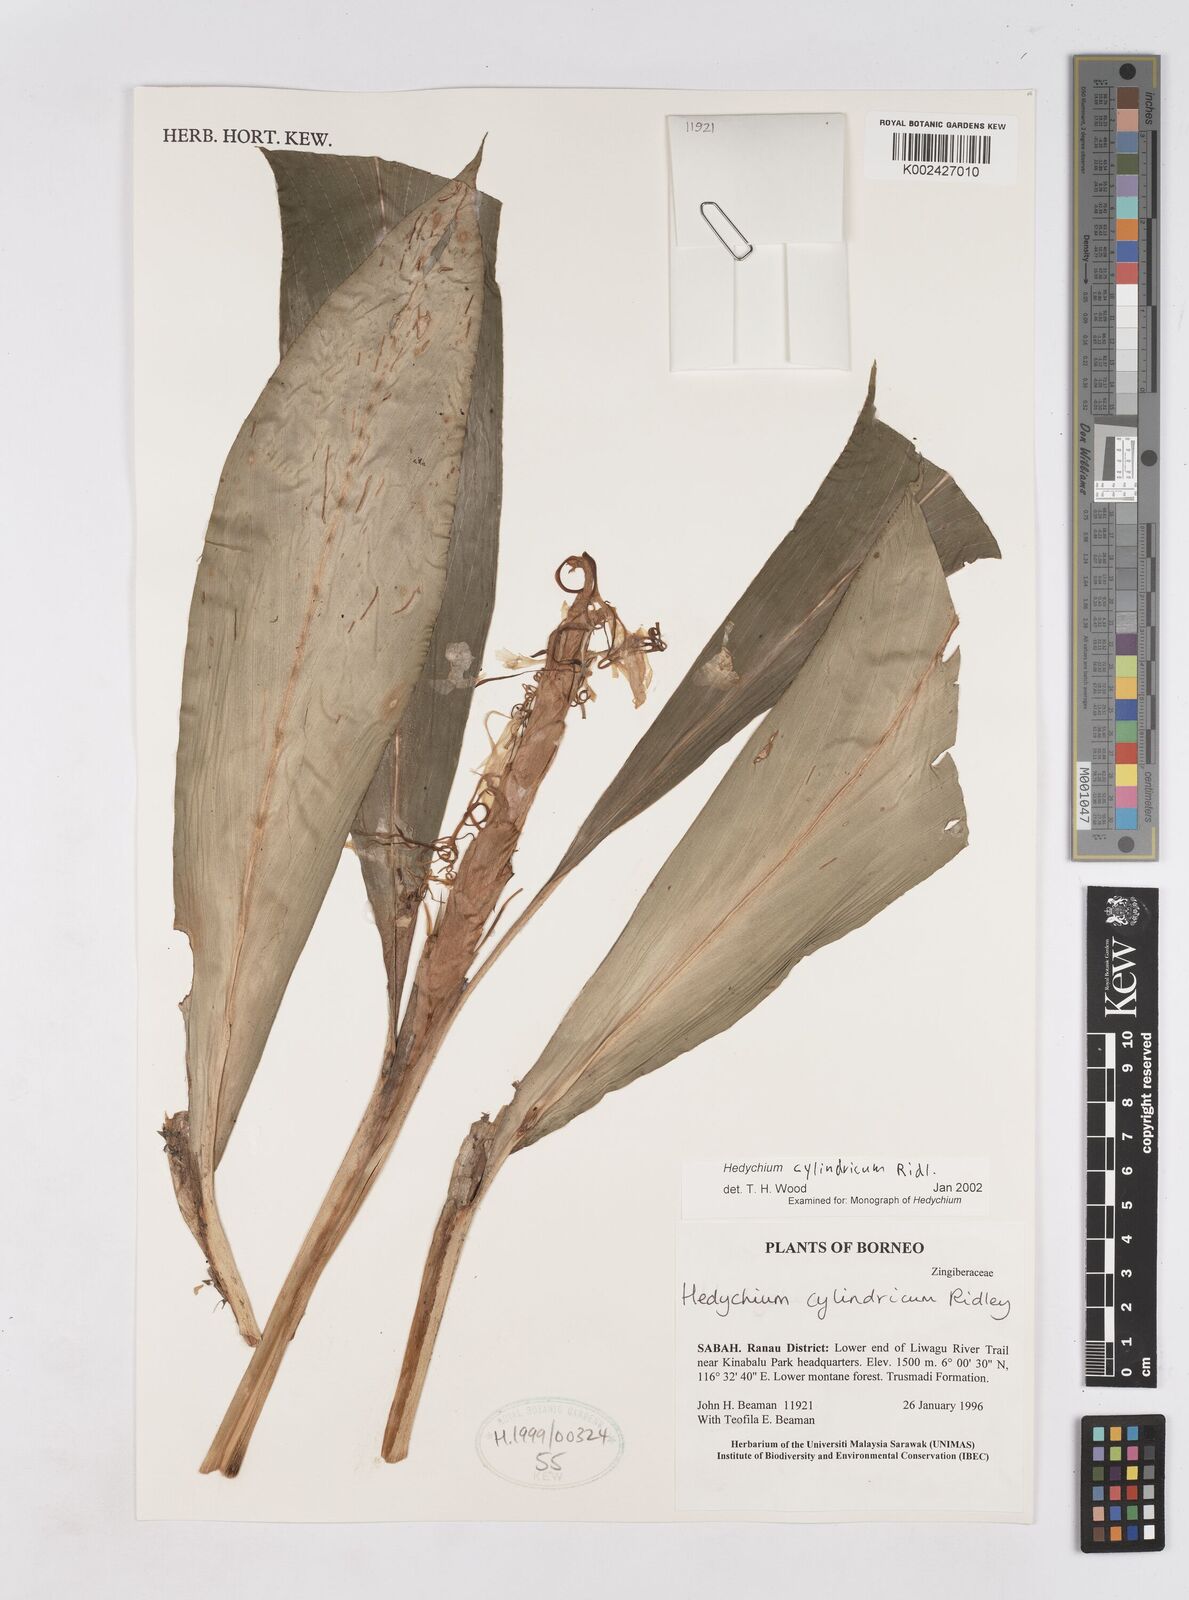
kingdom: Plantae
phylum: Tracheophyta
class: Liliopsida
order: Zingiberales
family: Zingiberaceae
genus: Hedychium
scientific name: Hedychium cylindricum
